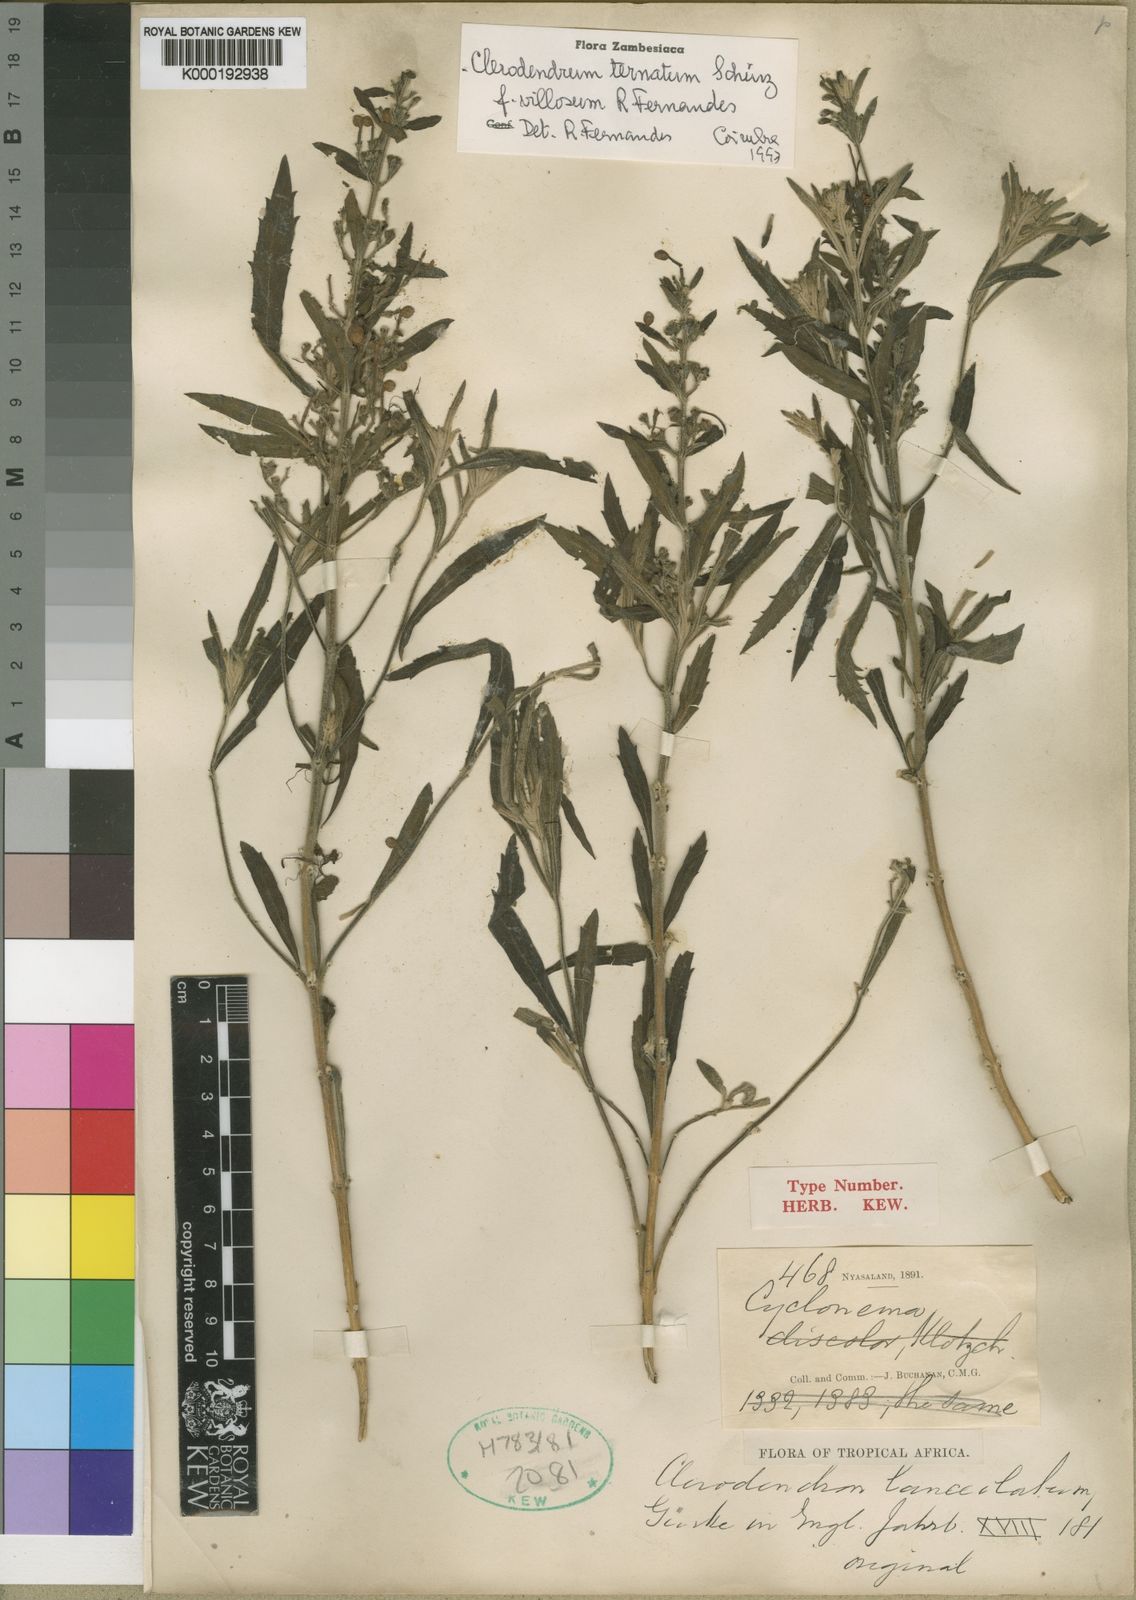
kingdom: Plantae
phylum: Tracheophyta
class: Magnoliopsida
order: Lamiales
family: Lamiaceae
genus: Clerodendrum
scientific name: Clerodendrum
